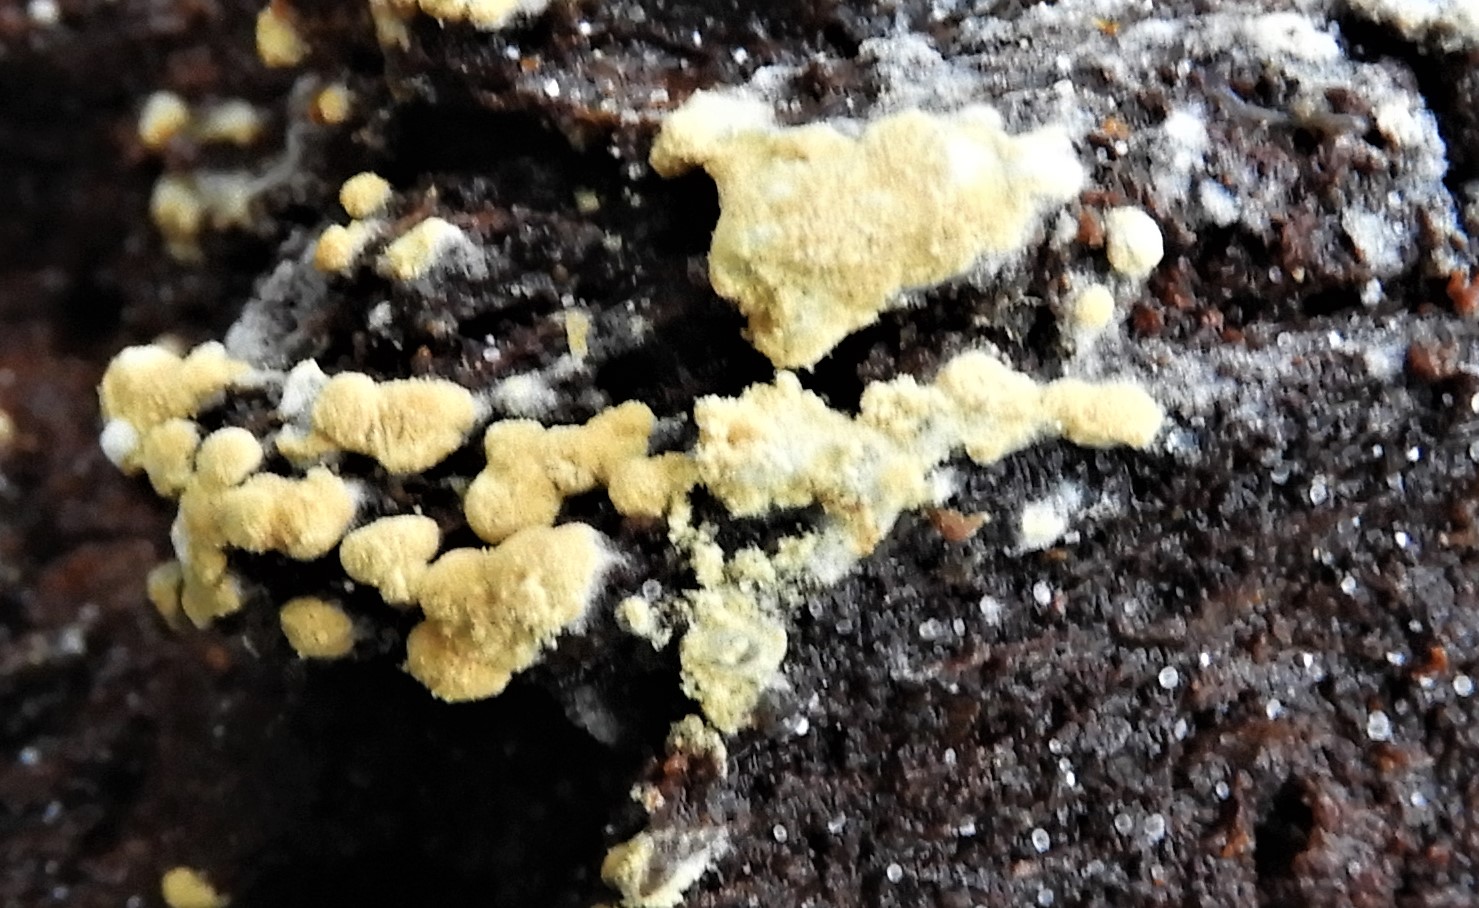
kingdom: Fungi
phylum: Basidiomycota
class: Agaricomycetes
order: Cantharellales
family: Botryobasidiaceae
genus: Botryobasidium
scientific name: Botryobasidium aureum
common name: gylden spindhinde
